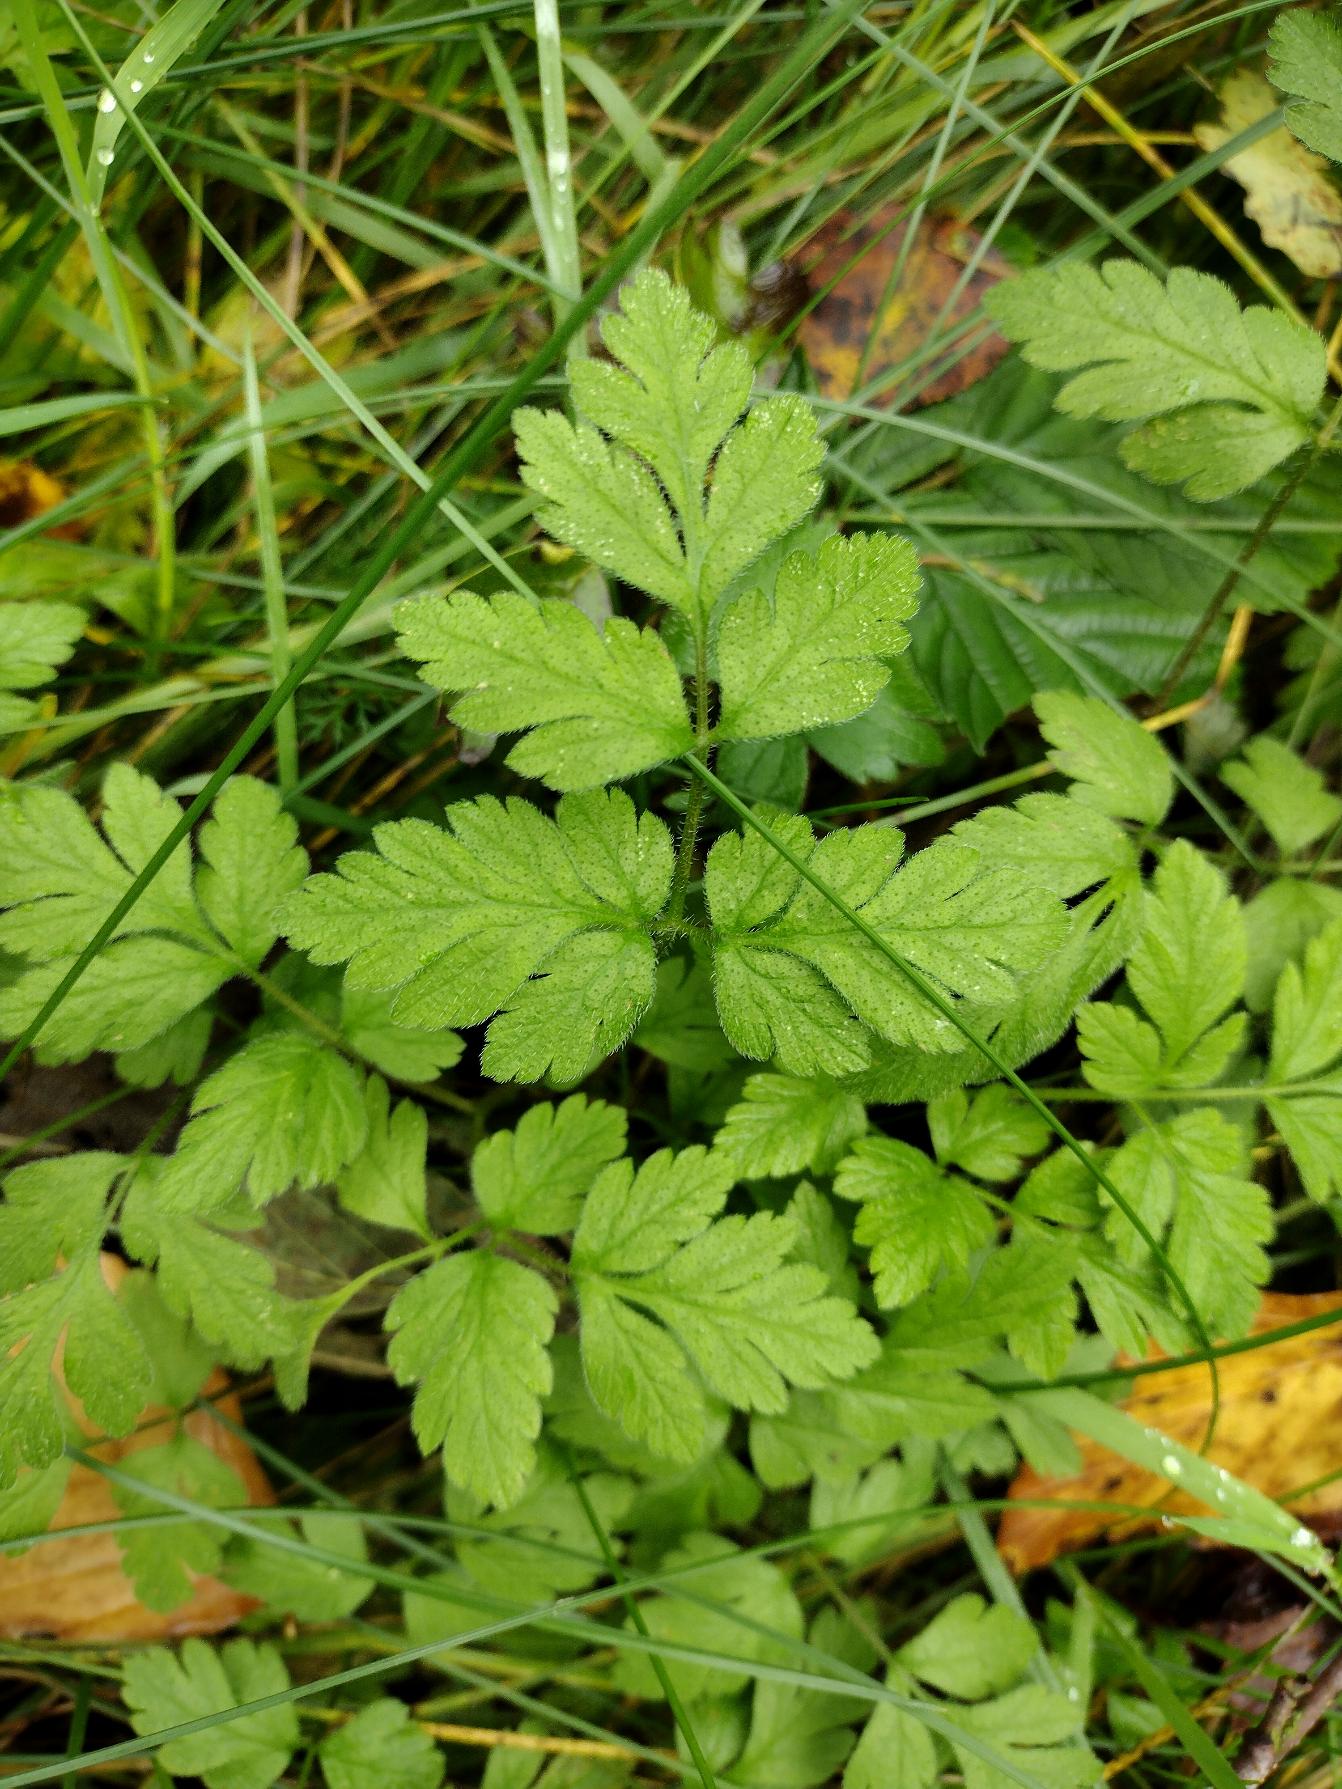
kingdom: Plantae
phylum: Tracheophyta
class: Magnoliopsida
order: Apiales
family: Apiaceae
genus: Chaerophyllum
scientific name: Chaerophyllum temulum
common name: Almindelig hulsvøb
